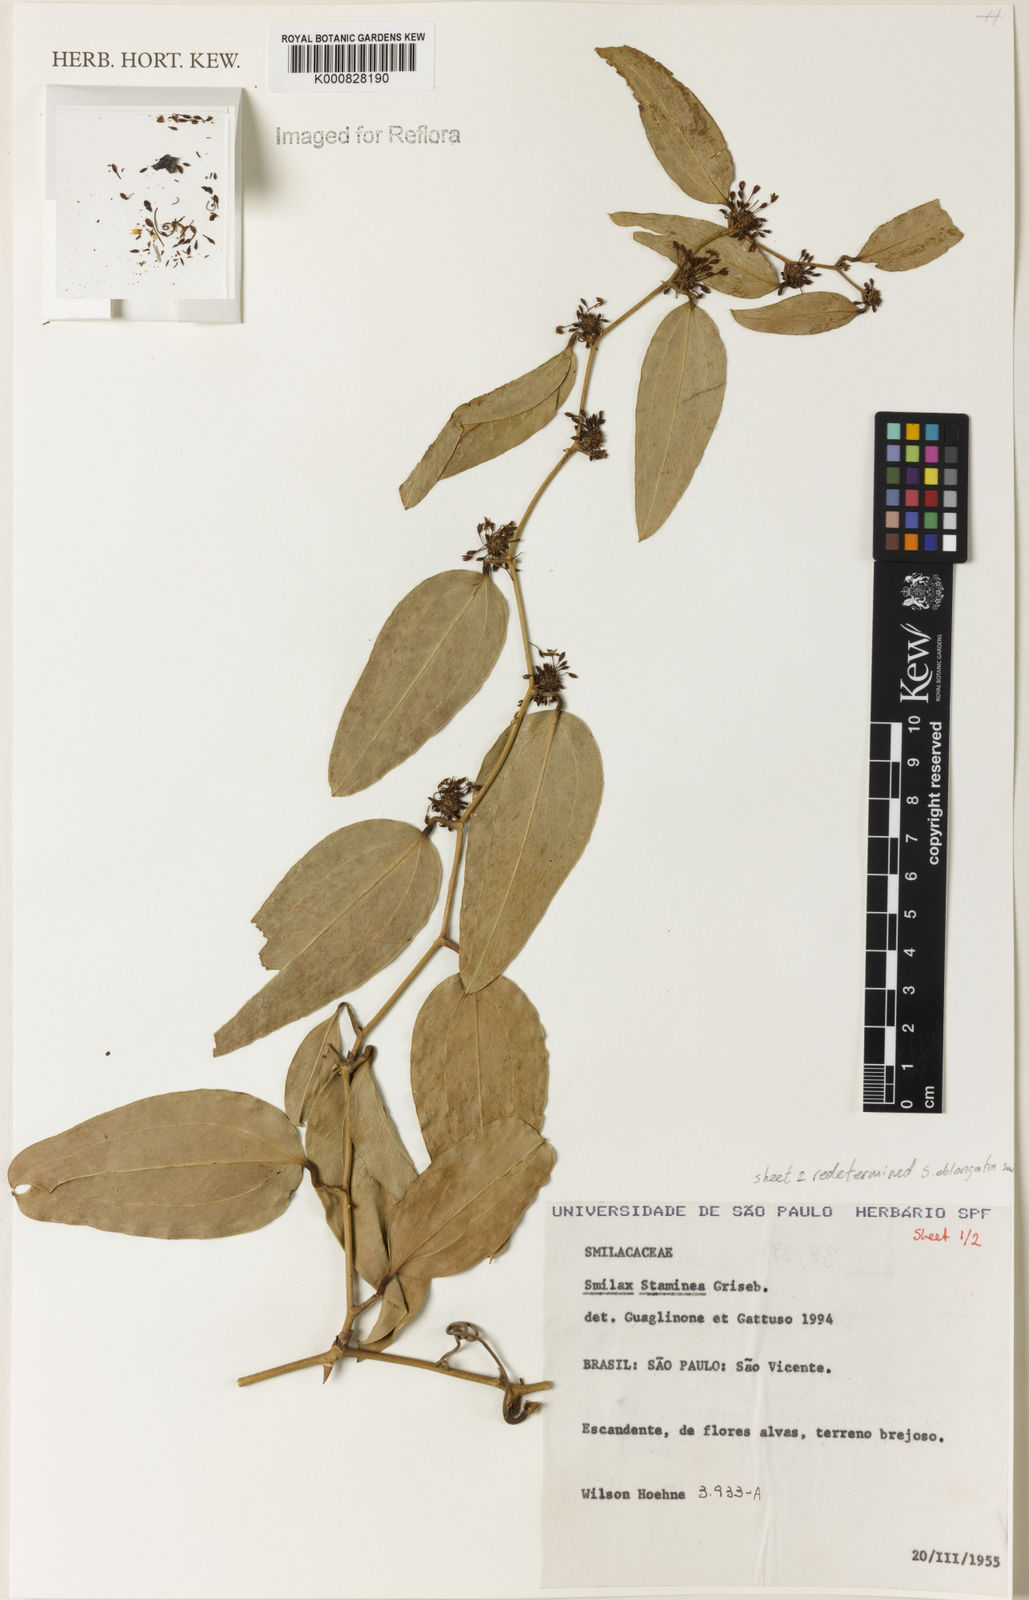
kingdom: Plantae
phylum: Tracheophyta
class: Liliopsida
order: Liliales
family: Smilacaceae
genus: Smilax
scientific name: Smilax oblongata
